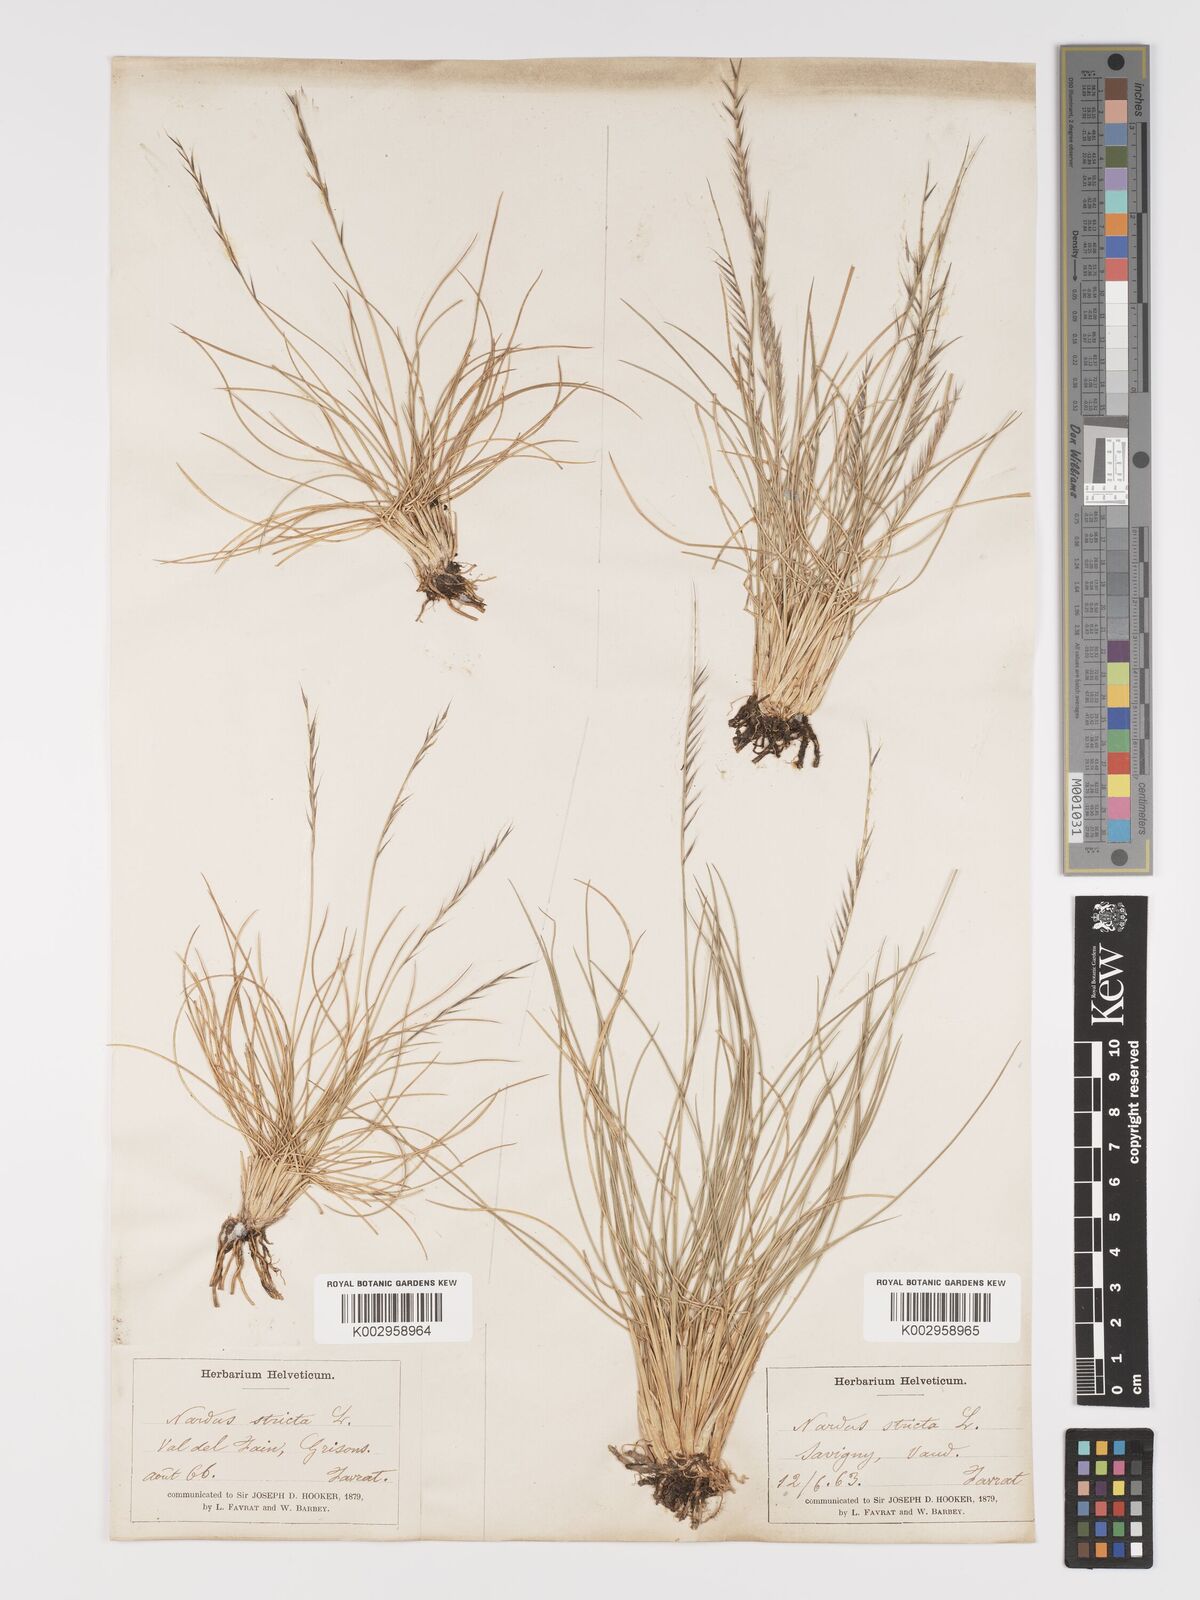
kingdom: Plantae
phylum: Tracheophyta
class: Liliopsida
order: Poales
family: Poaceae
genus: Nardus
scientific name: Nardus stricta
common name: Mat-grass
